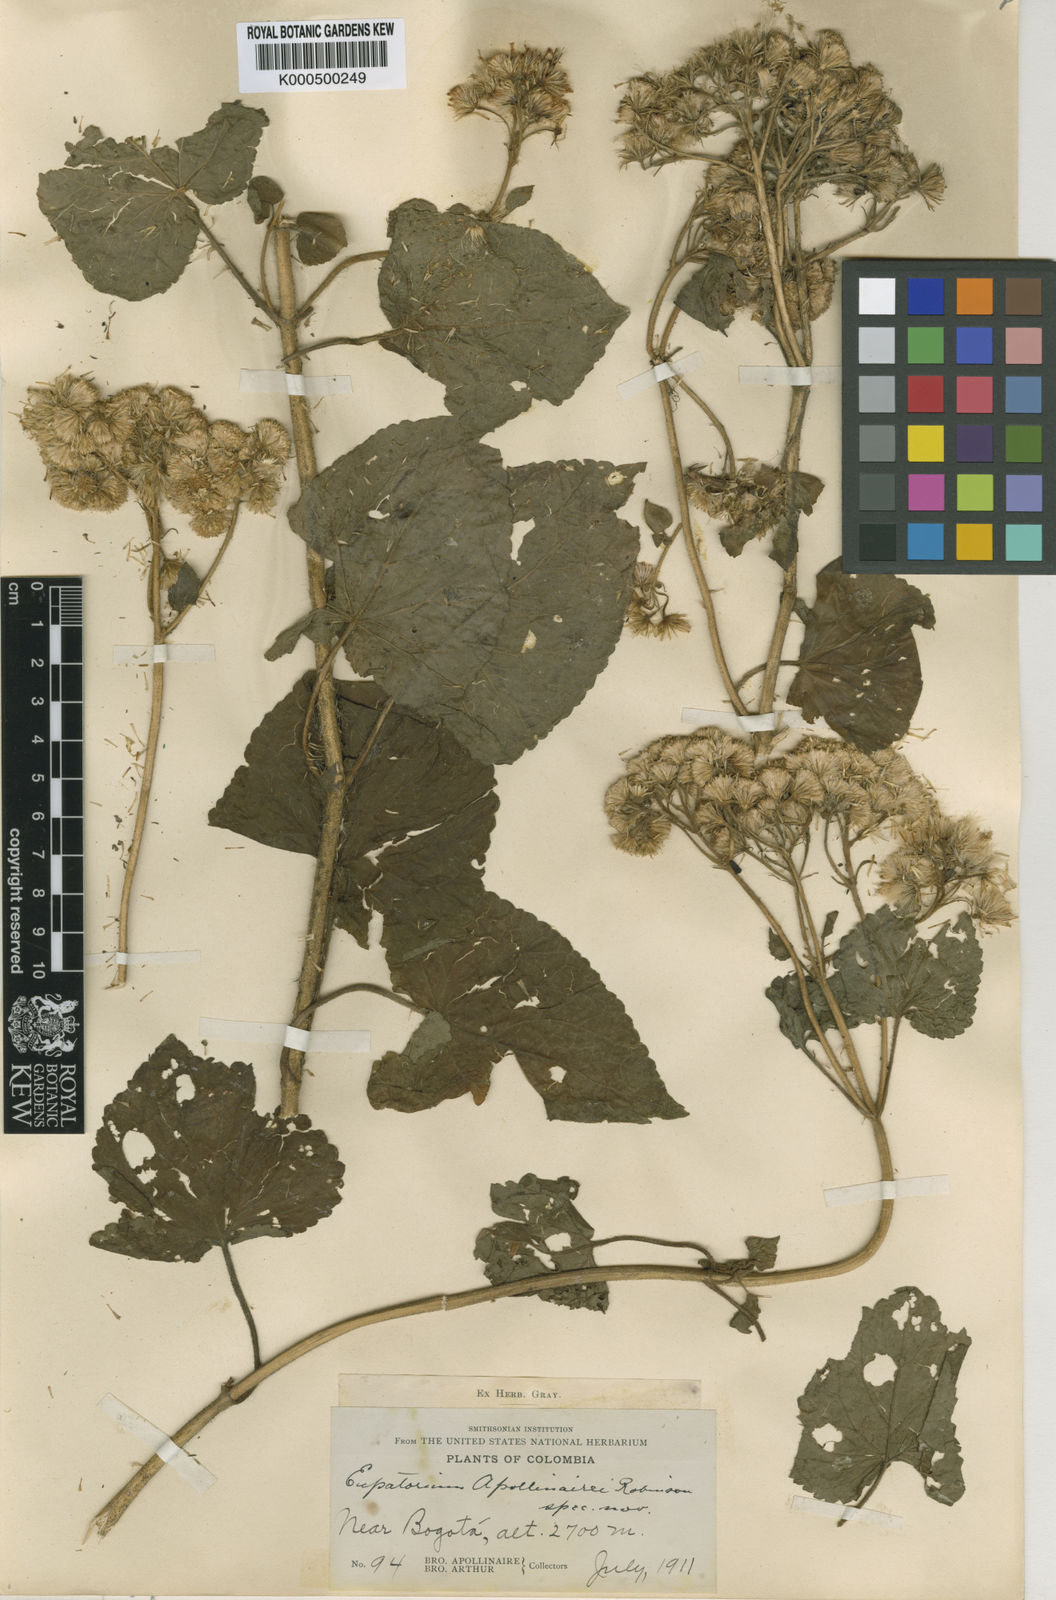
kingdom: Plantae
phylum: Tracheophyta
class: Magnoliopsida
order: Asterales
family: Asteraceae
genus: Ageratina
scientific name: Ageratina apollinairei
